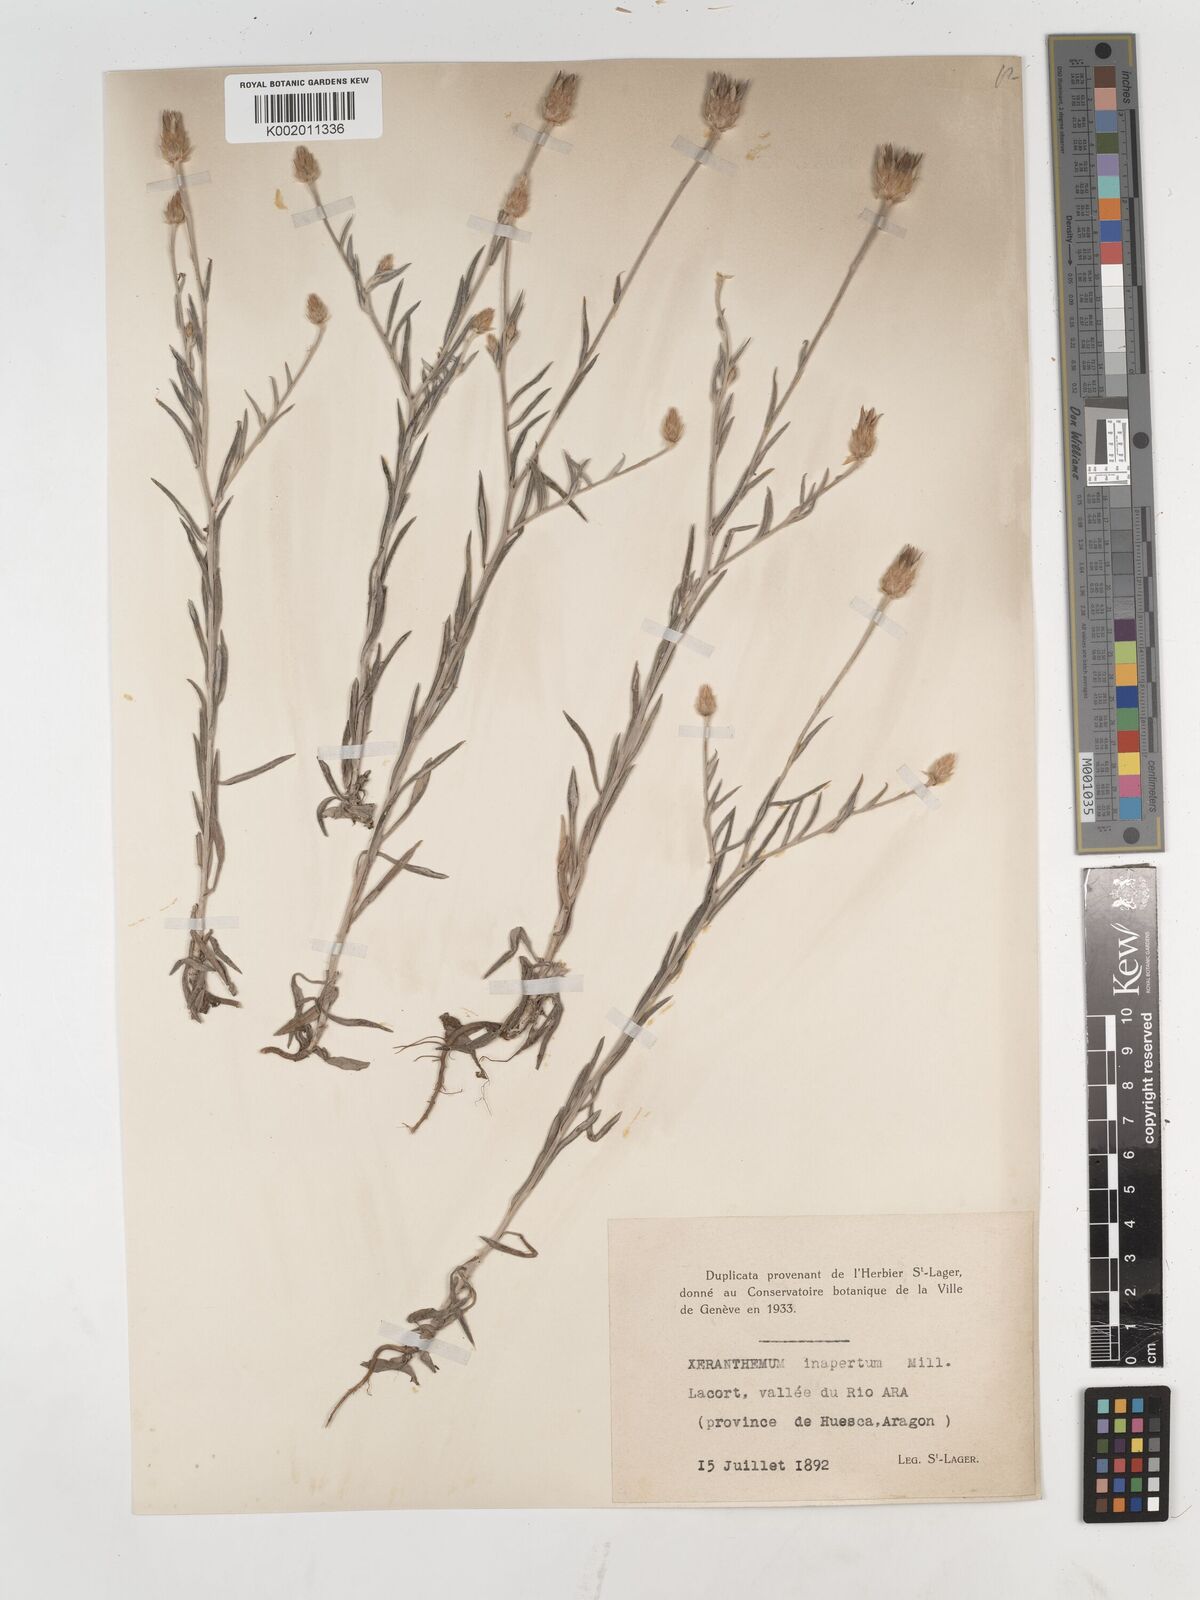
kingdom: Plantae
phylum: Tracheophyta
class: Magnoliopsida
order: Asterales
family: Asteraceae
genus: Xeranthemum
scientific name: Xeranthemum inapertum
